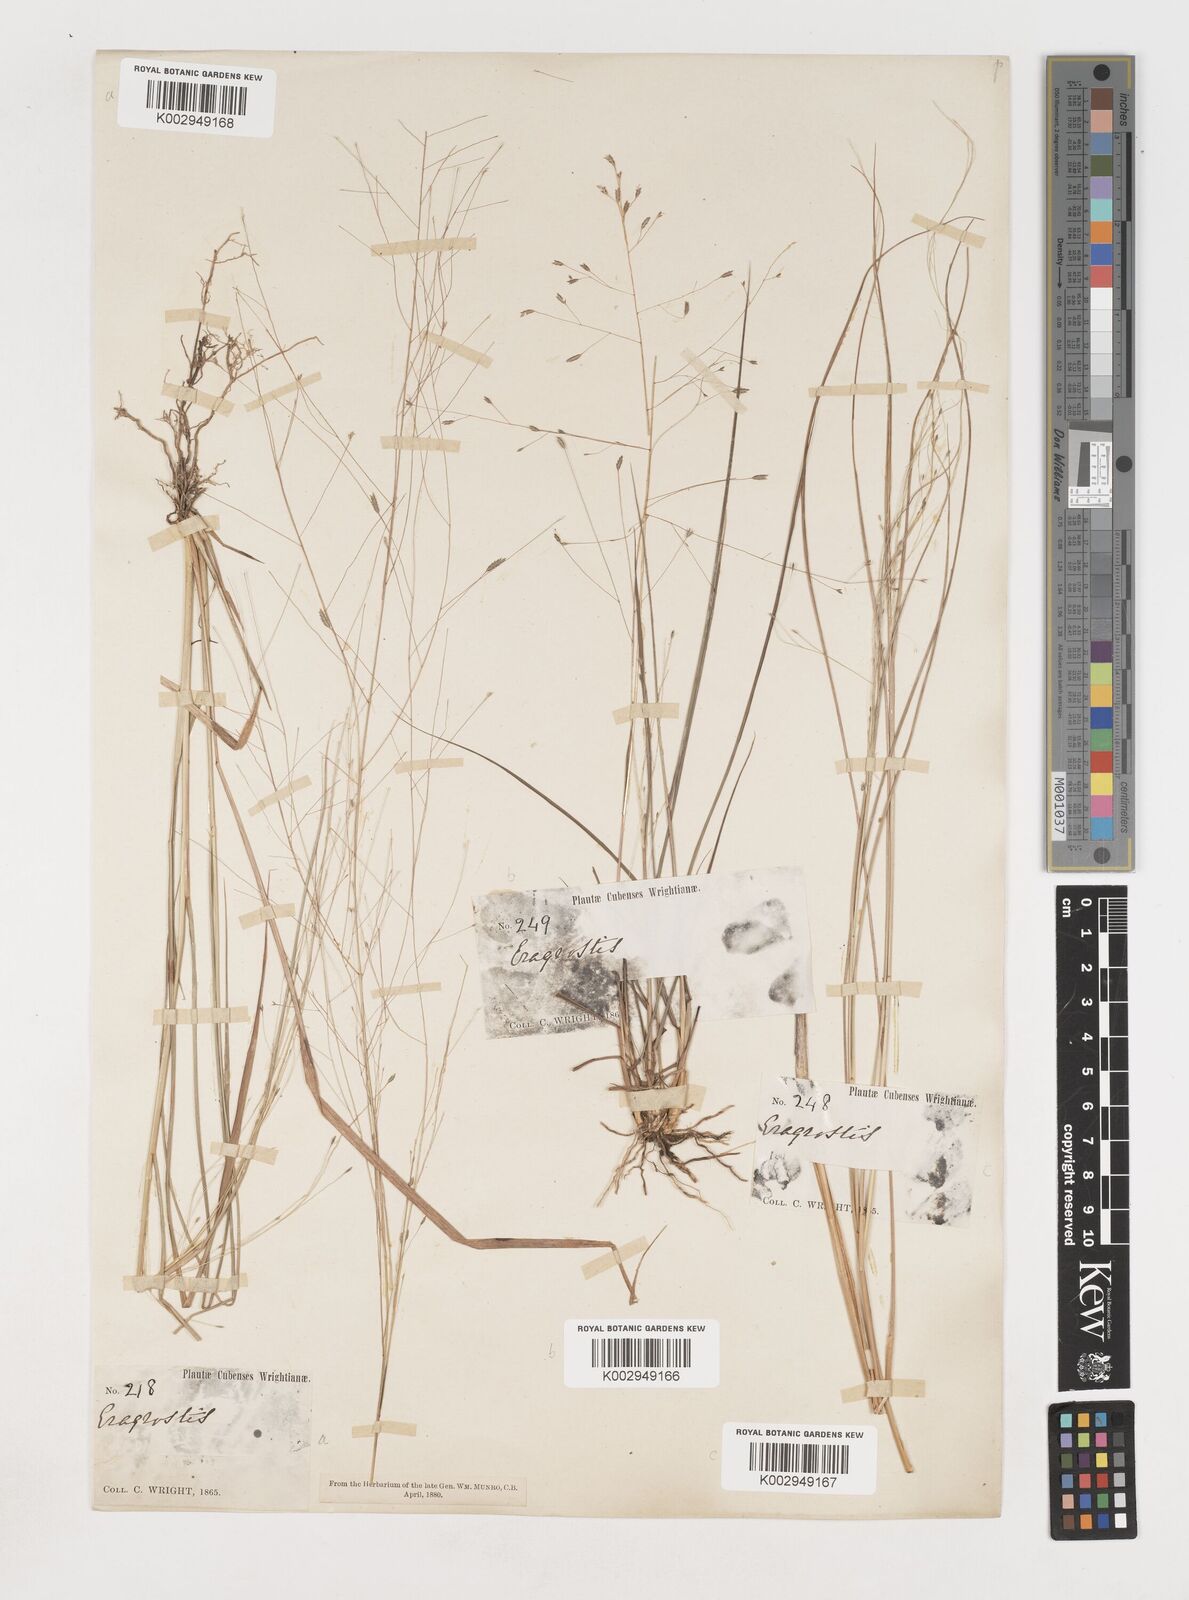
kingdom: Plantae
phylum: Tracheophyta
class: Liliopsida
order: Poales
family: Poaceae
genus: Eragrostis
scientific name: Eragrostis elliottii
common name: Elliott's love grass
